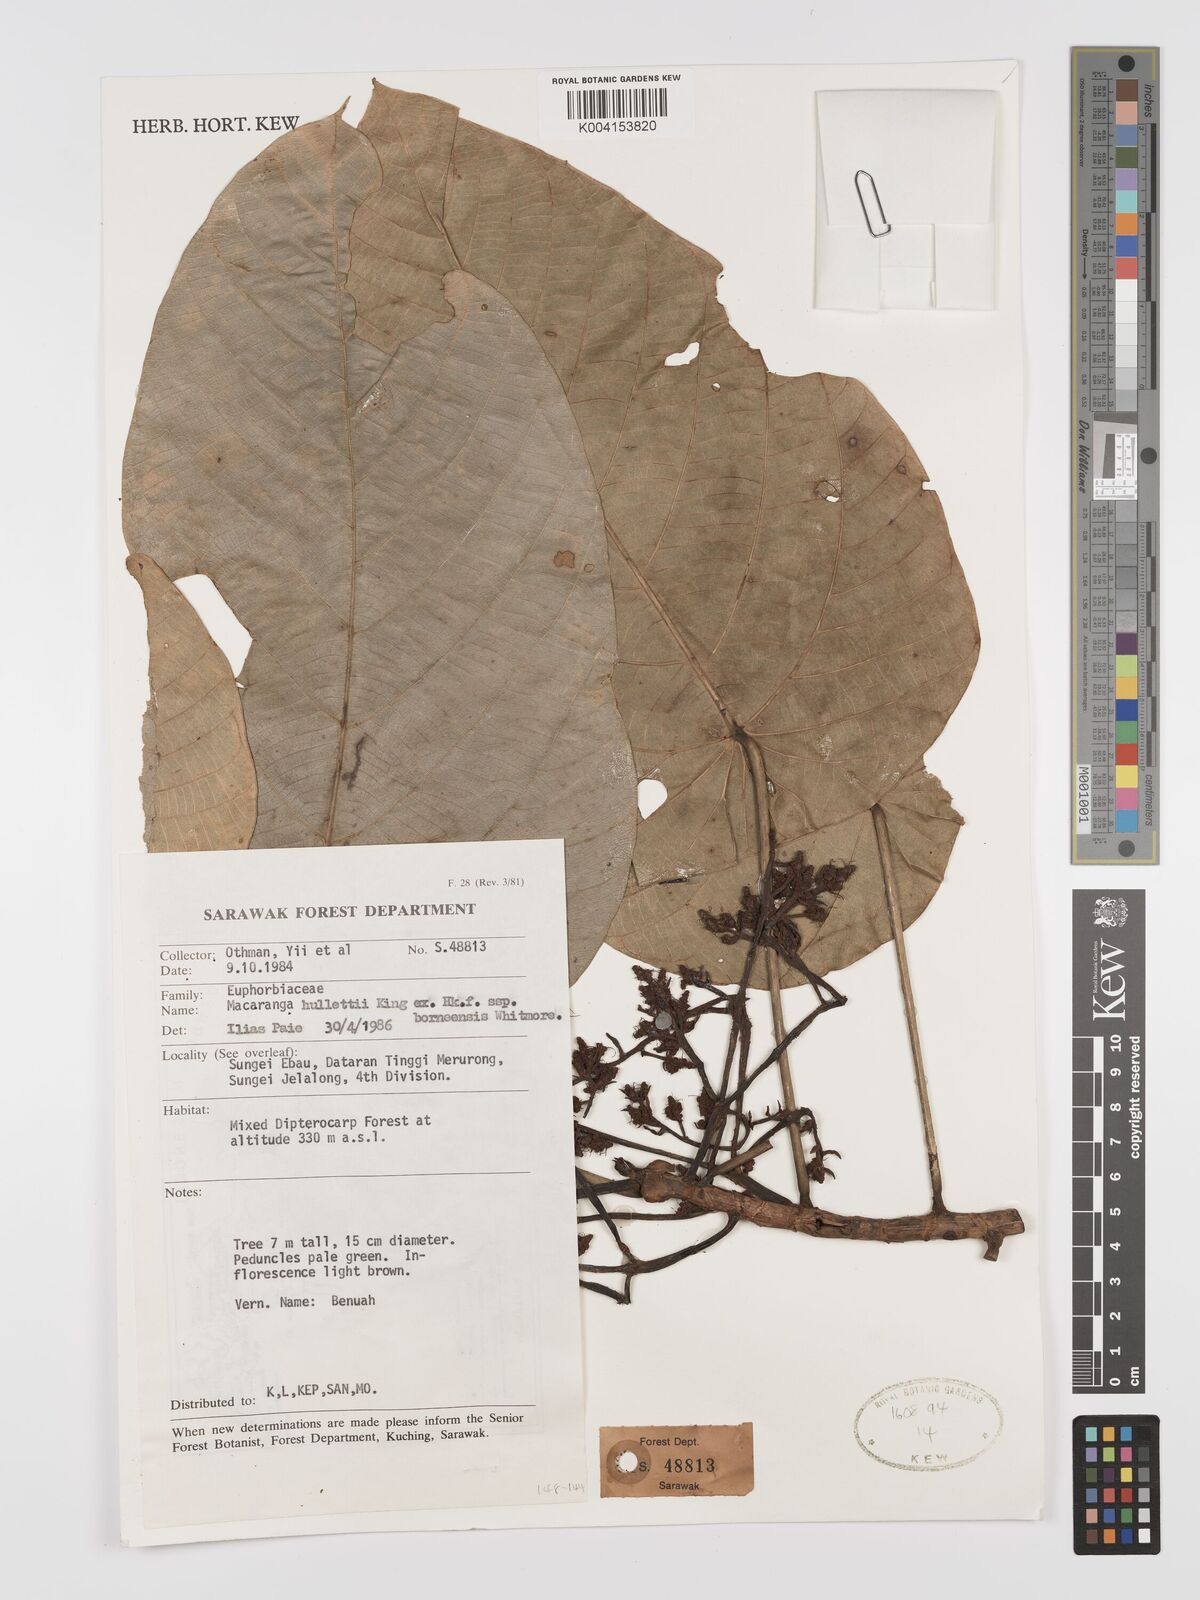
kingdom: Plantae
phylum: Tracheophyta
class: Magnoliopsida
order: Malpighiales
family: Euphorbiaceae
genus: Macaranga
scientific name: Macaranga hullettii
